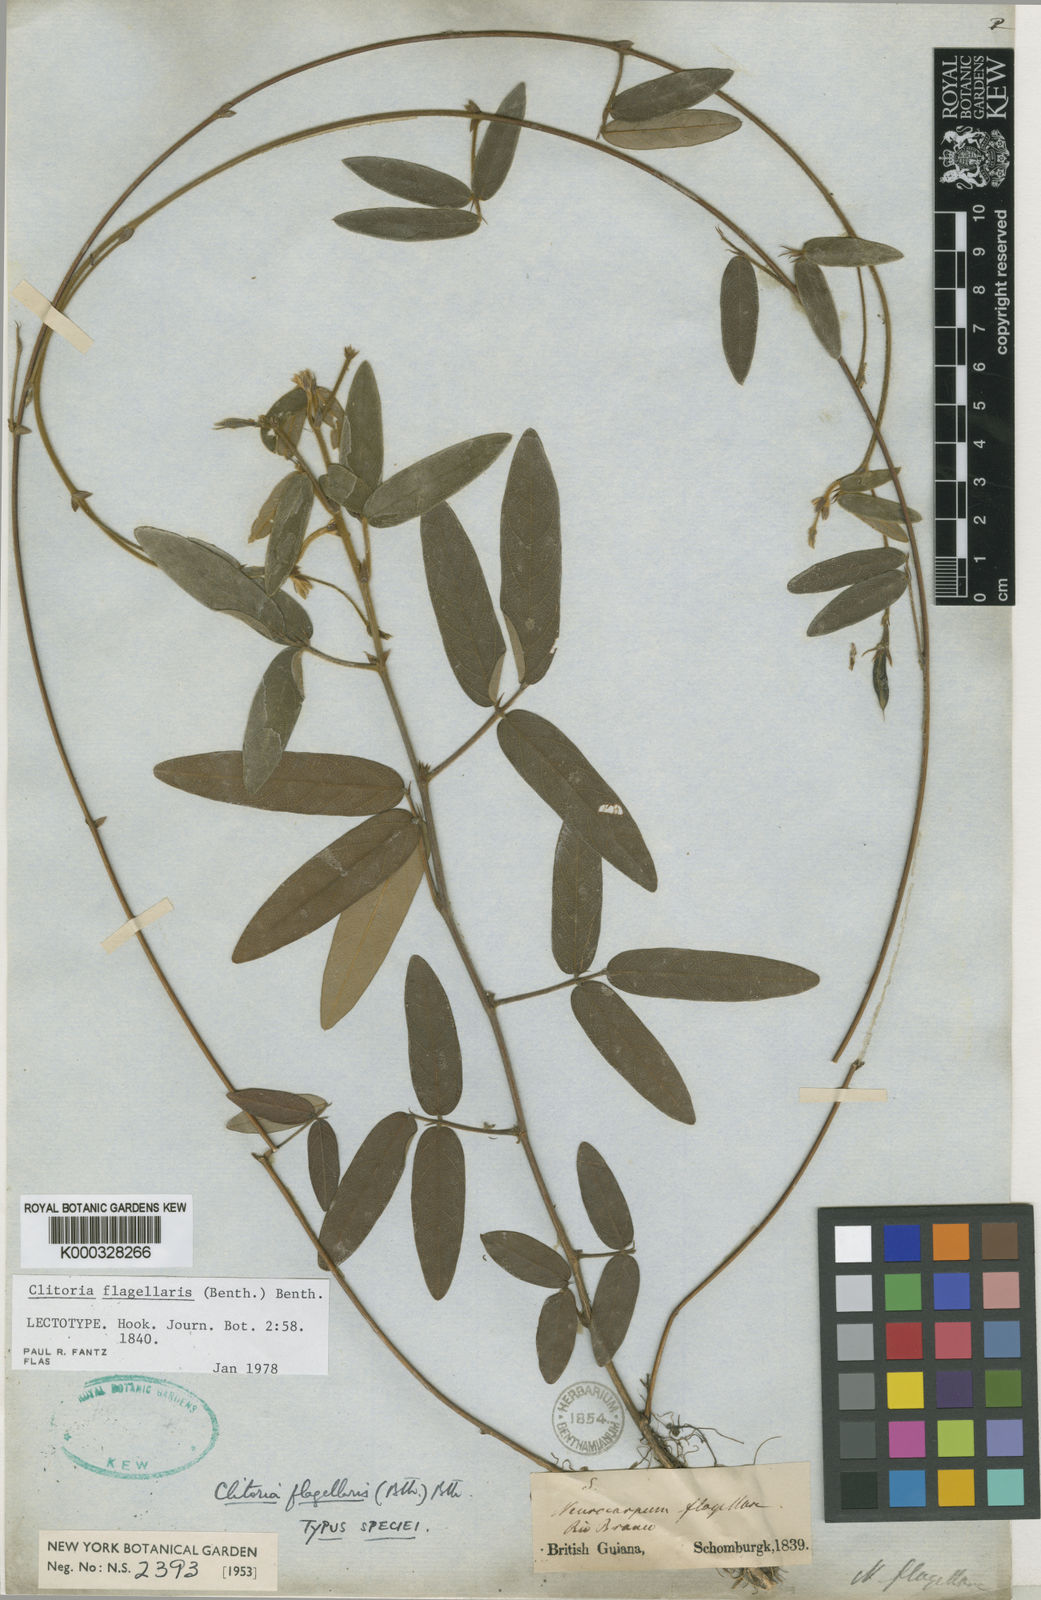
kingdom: Plantae
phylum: Tracheophyta
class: Magnoliopsida
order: Fabales
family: Fabaceae
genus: Clitoria
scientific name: Clitoria flagellaris
